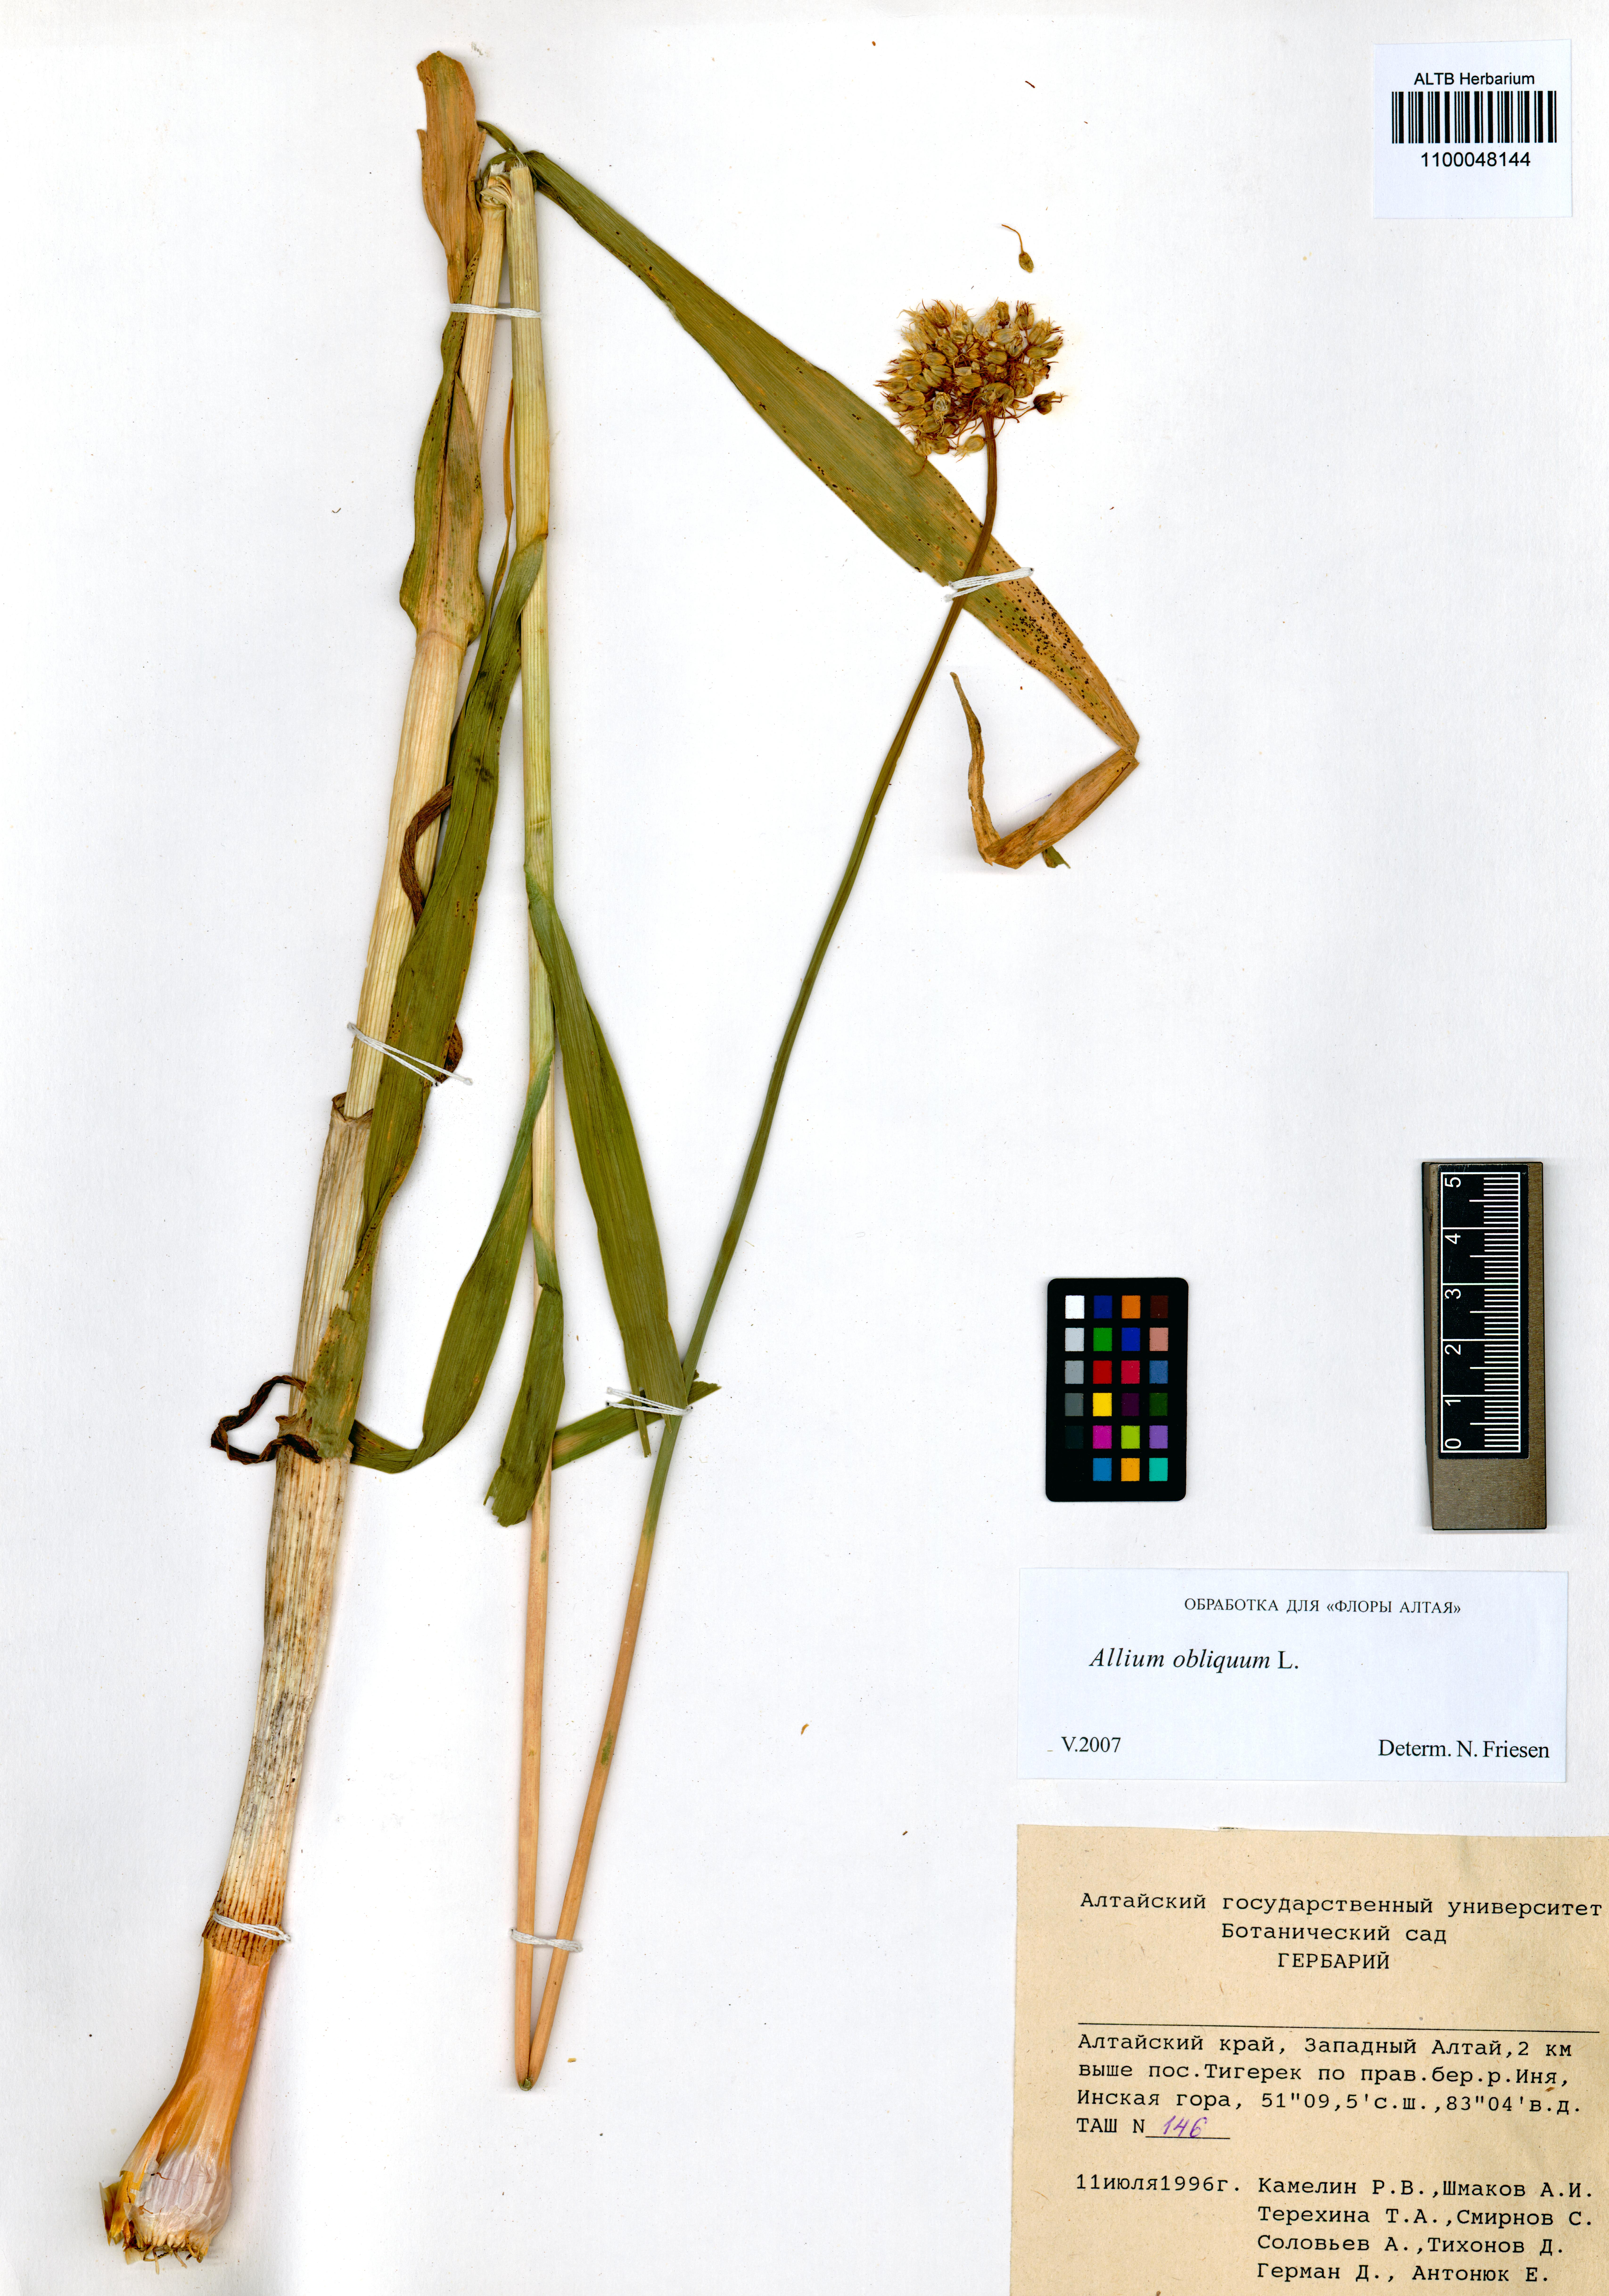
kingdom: Plantae
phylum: Tracheophyta
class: Liliopsida
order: Asparagales
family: Amaryllidaceae
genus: Allium
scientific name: Allium obliquum
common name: Oblique onion
